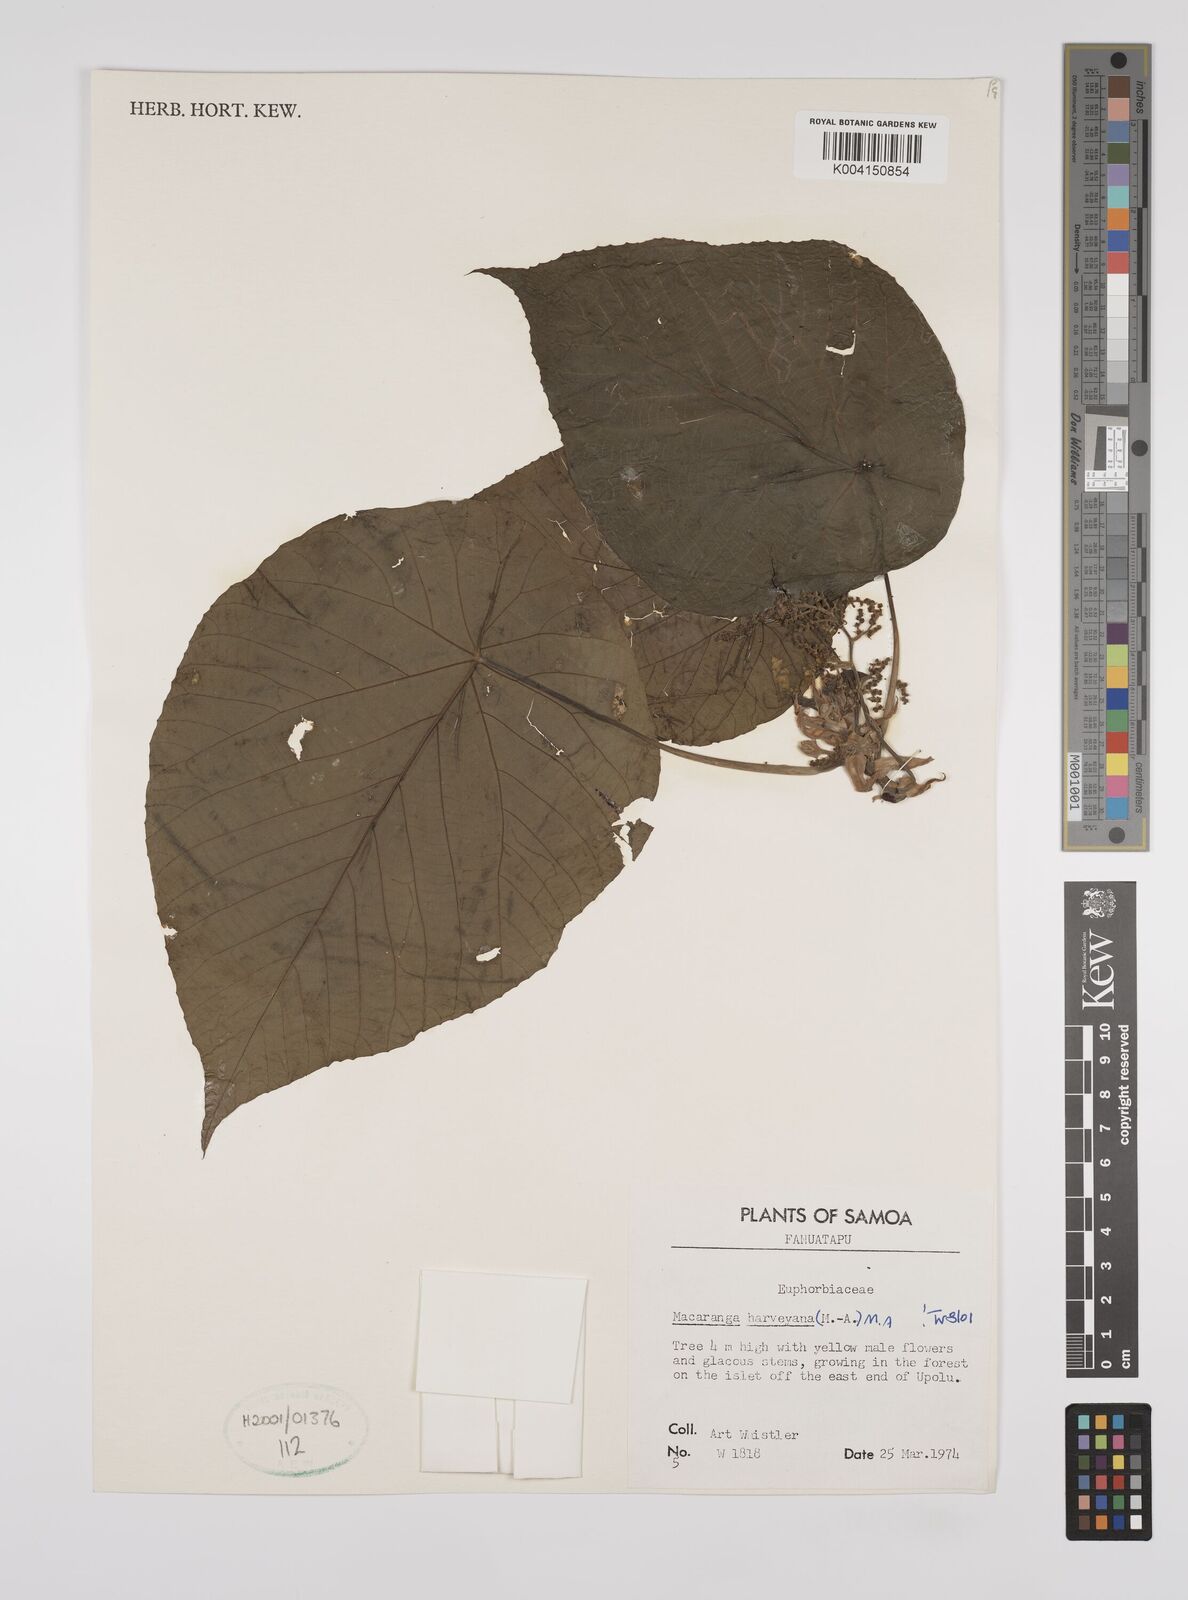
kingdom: Plantae
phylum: Tracheophyta
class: Magnoliopsida
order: Malpighiales
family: Euphorbiaceae
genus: Macaranga
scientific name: Macaranga harveyana
